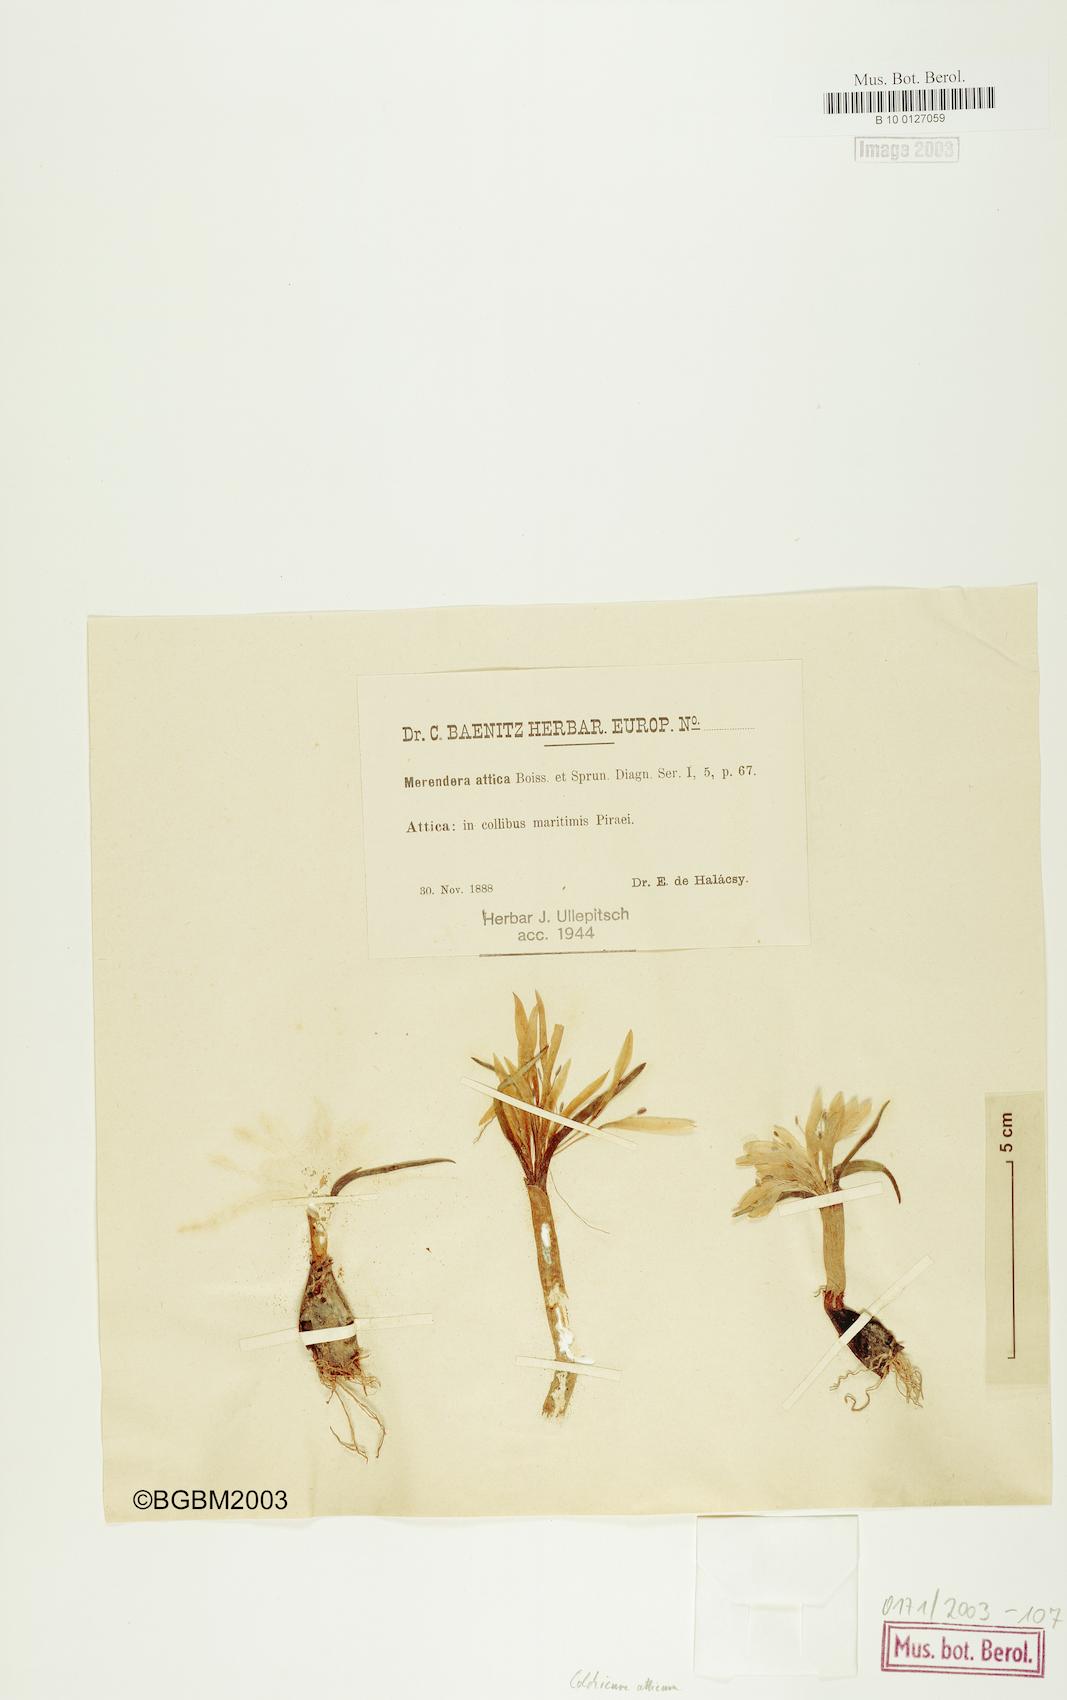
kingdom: Plantae
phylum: Tracheophyta
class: Liliopsida
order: Liliales
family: Colchicaceae
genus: Colchicum
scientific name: Colchicum atticum
